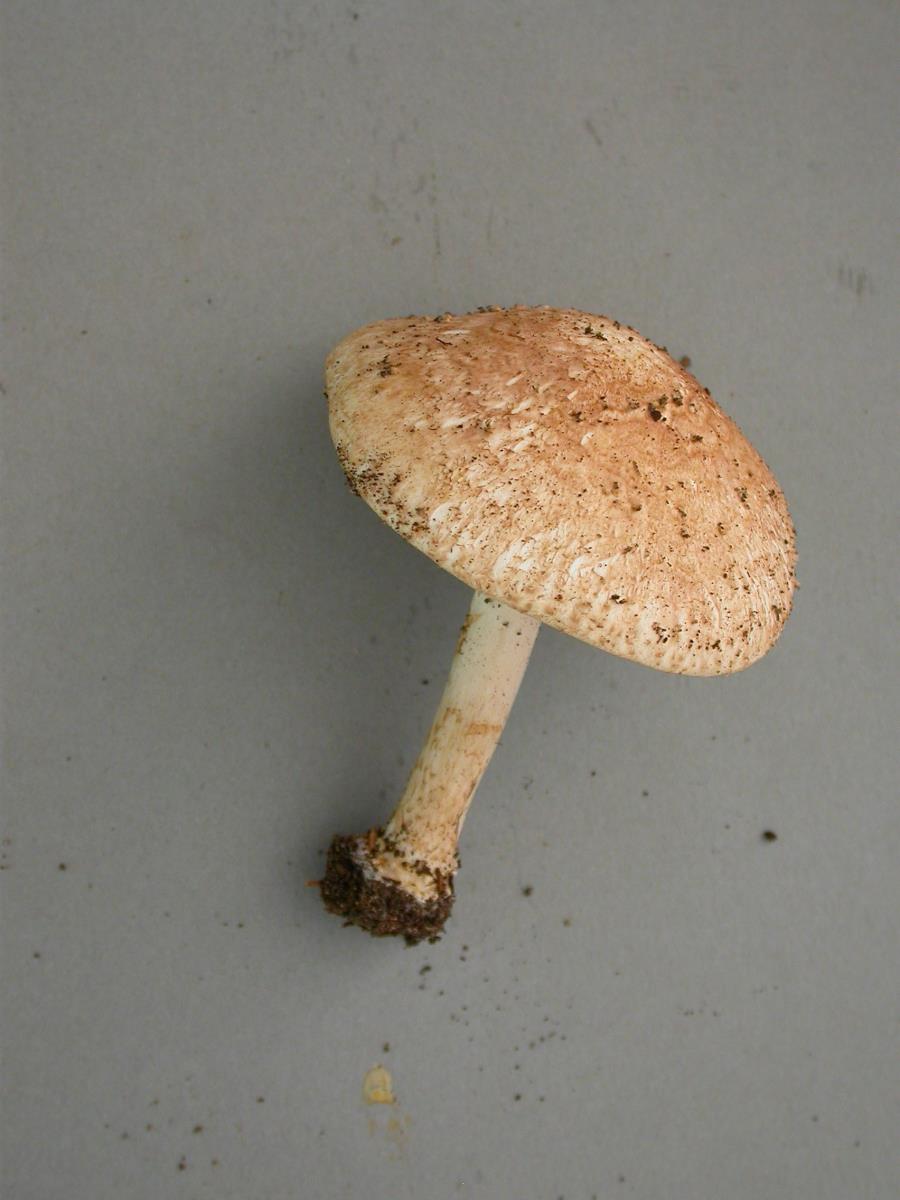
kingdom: Fungi
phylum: Basidiomycota
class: Agaricomycetes
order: Agaricales
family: Agaricaceae
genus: Echinoderma
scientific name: Echinoderma
